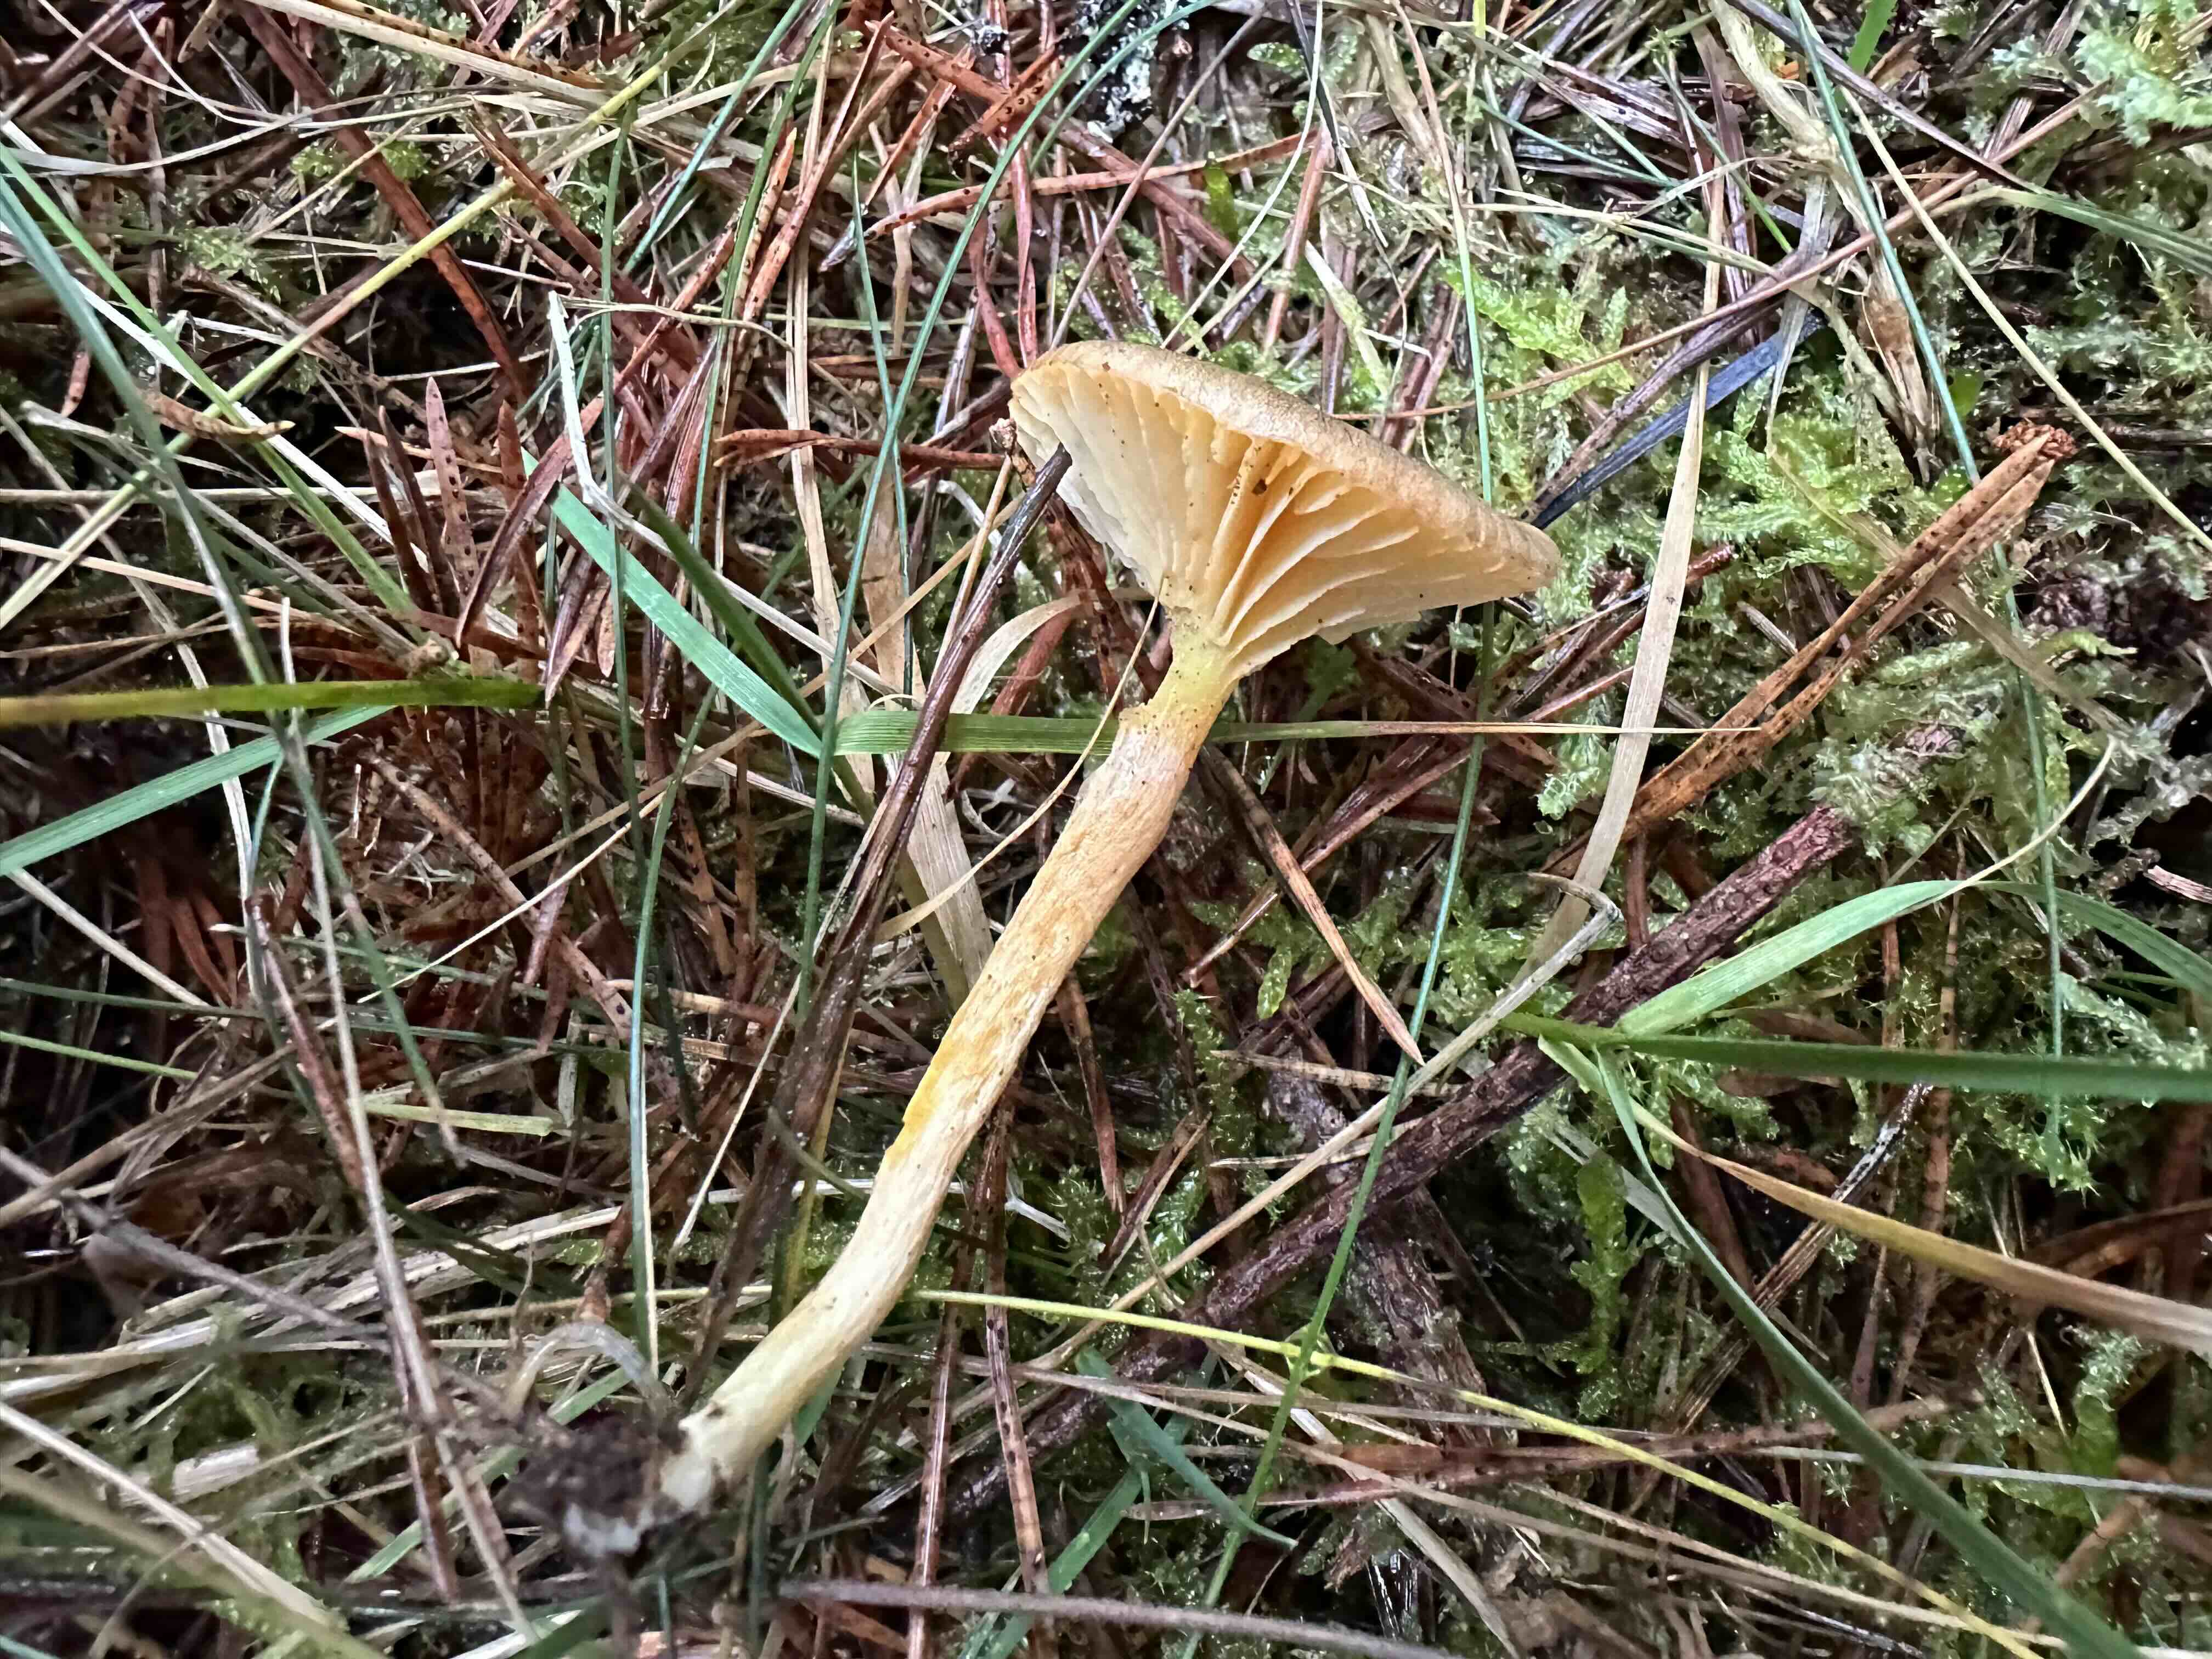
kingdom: Fungi
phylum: Basidiomycota
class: Agaricomycetes
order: Agaricales
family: Hygrophoraceae
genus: Hygrophorus
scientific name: Hygrophorus hypothejus
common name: frost-sneglehat
